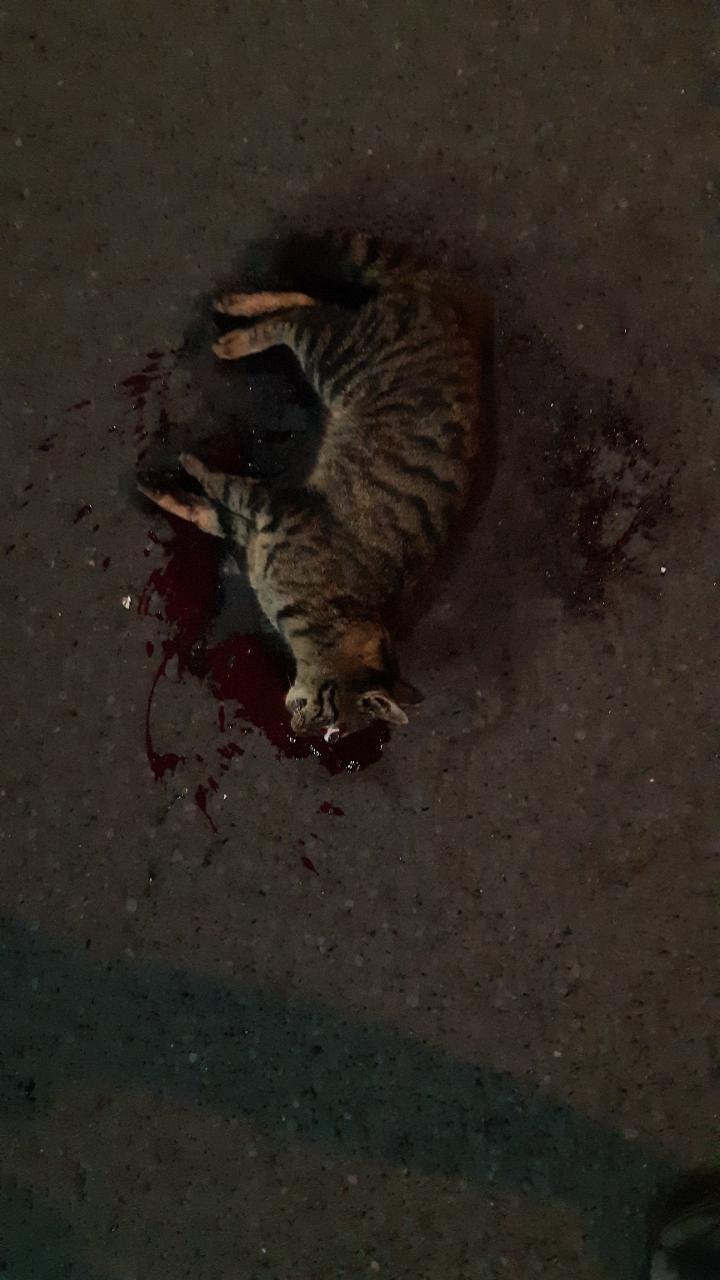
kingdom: Animalia
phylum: Chordata
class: Mammalia
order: Carnivora
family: Felidae
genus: Felis
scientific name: Felis catus
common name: Domestic cat
